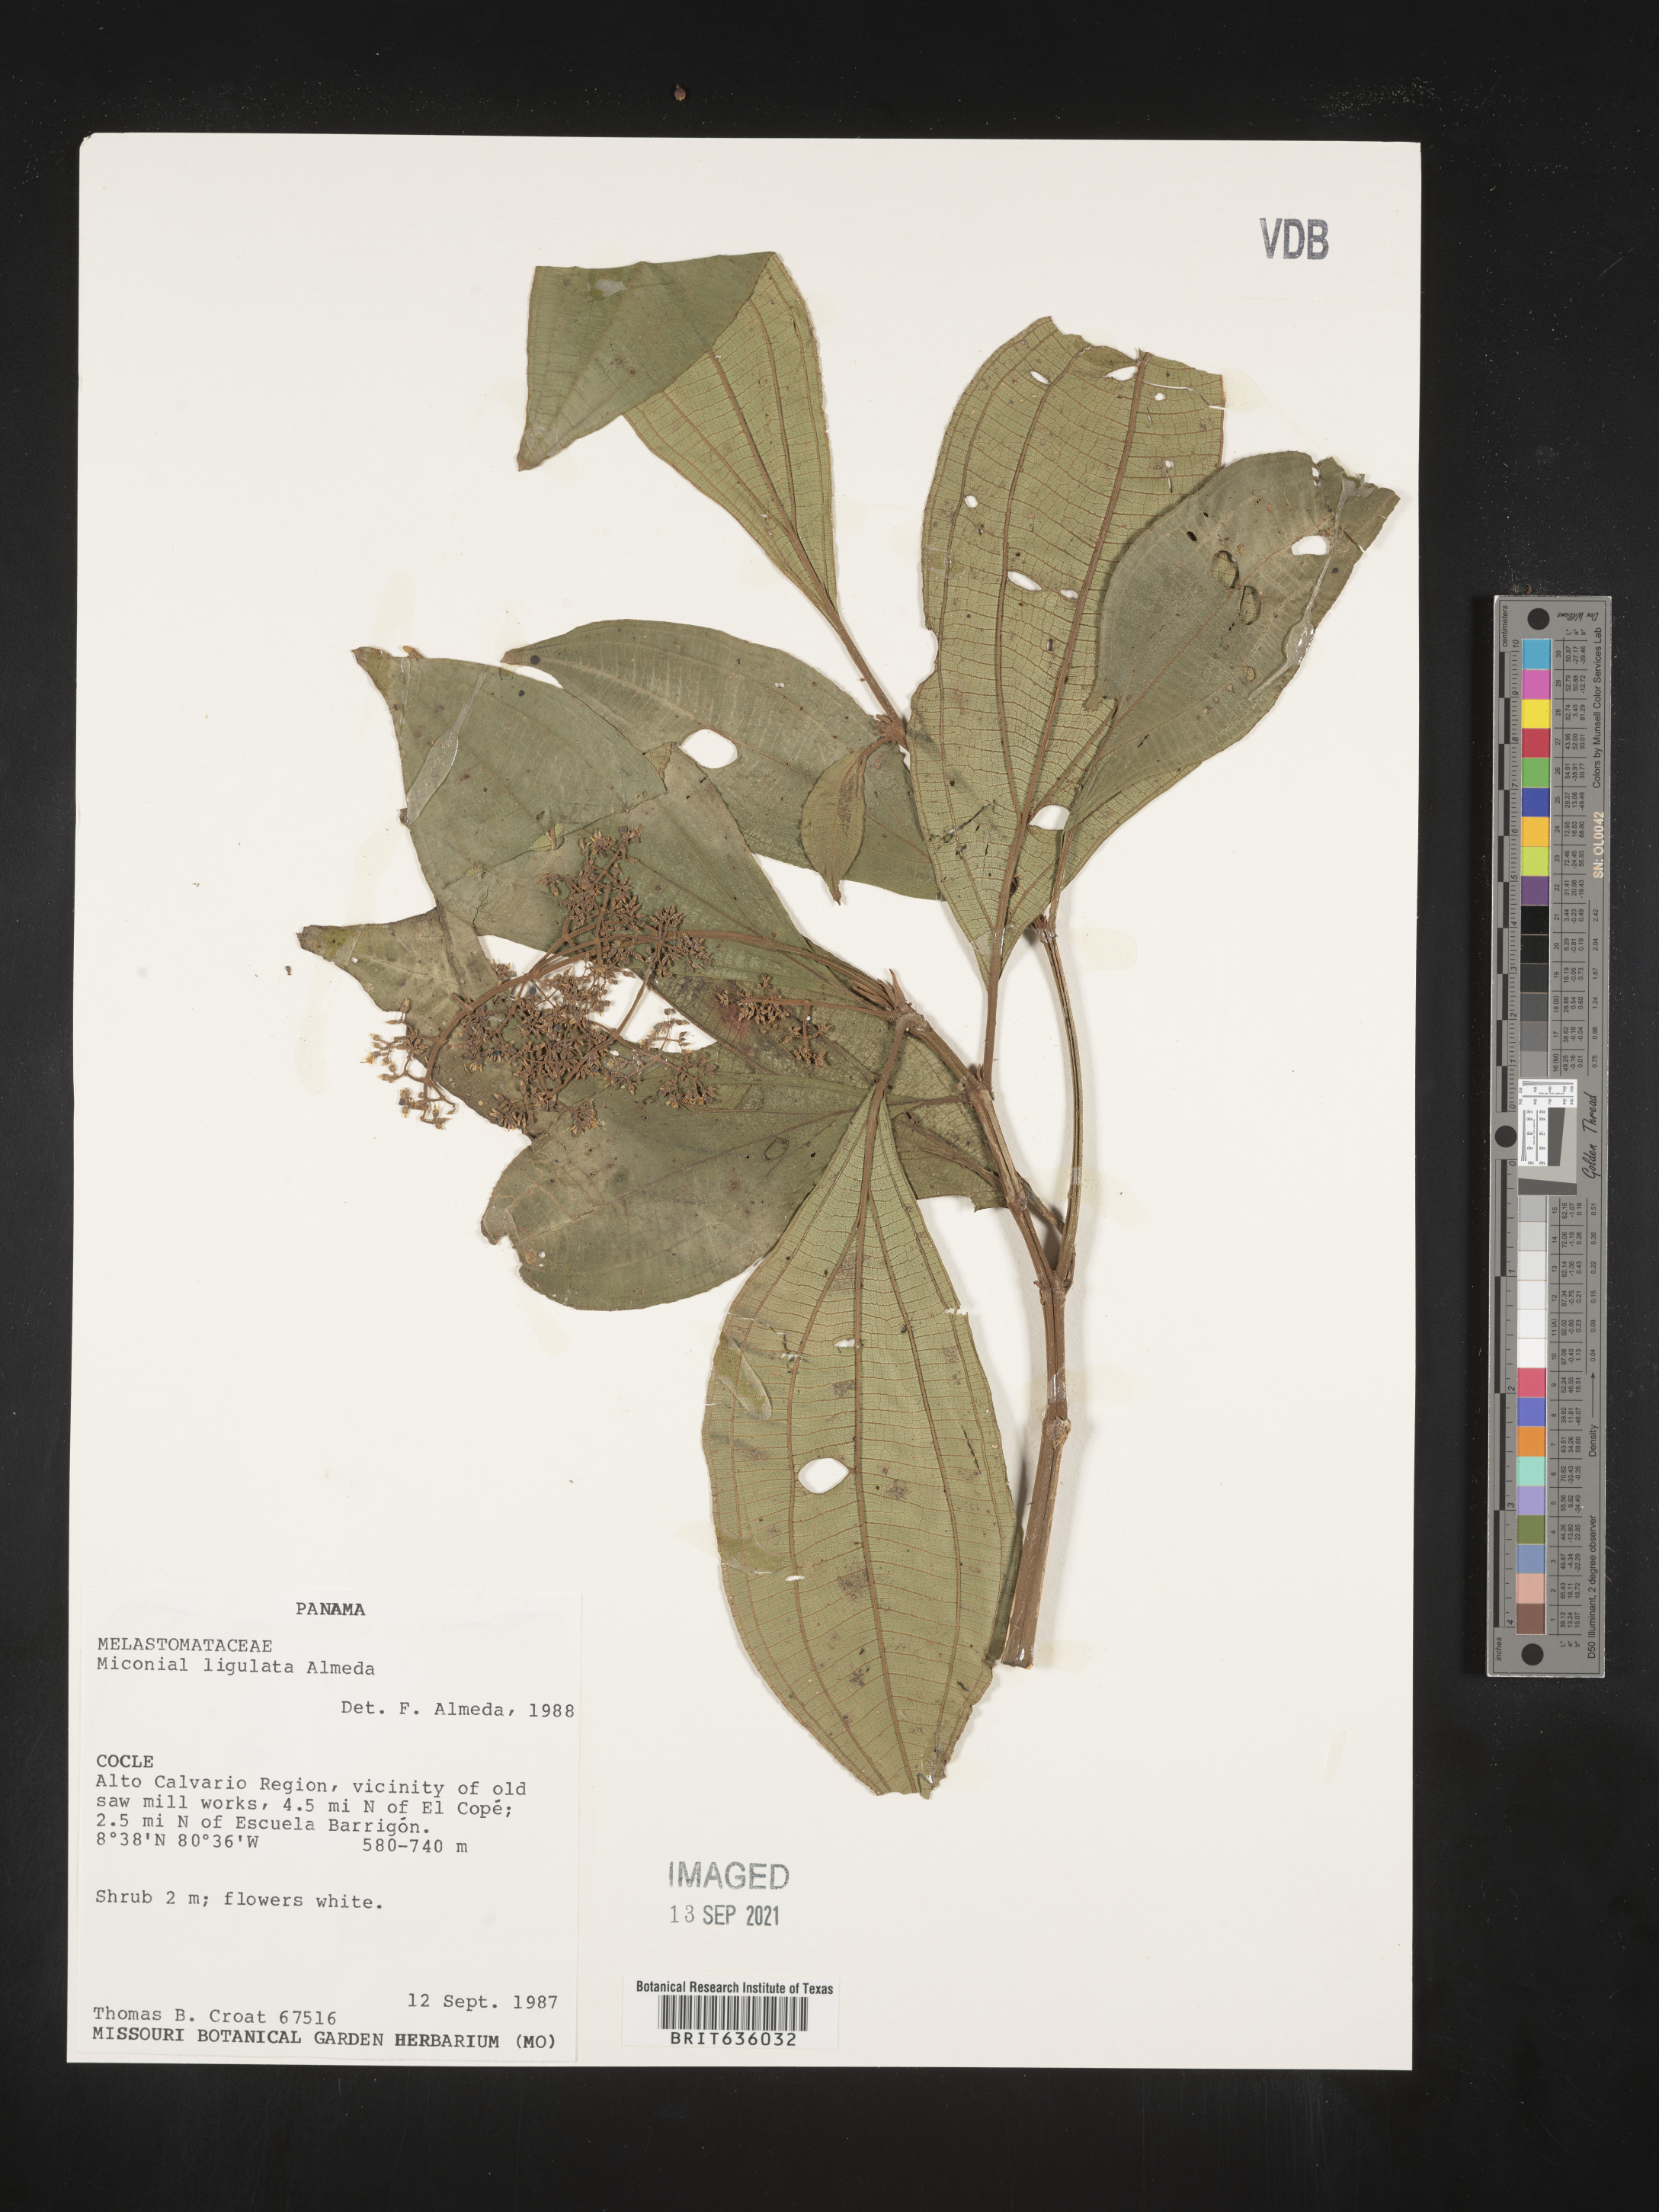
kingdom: Plantae
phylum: Tracheophyta
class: Magnoliopsida
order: Myrtales
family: Melastomataceae
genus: Miconia
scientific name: Miconia
